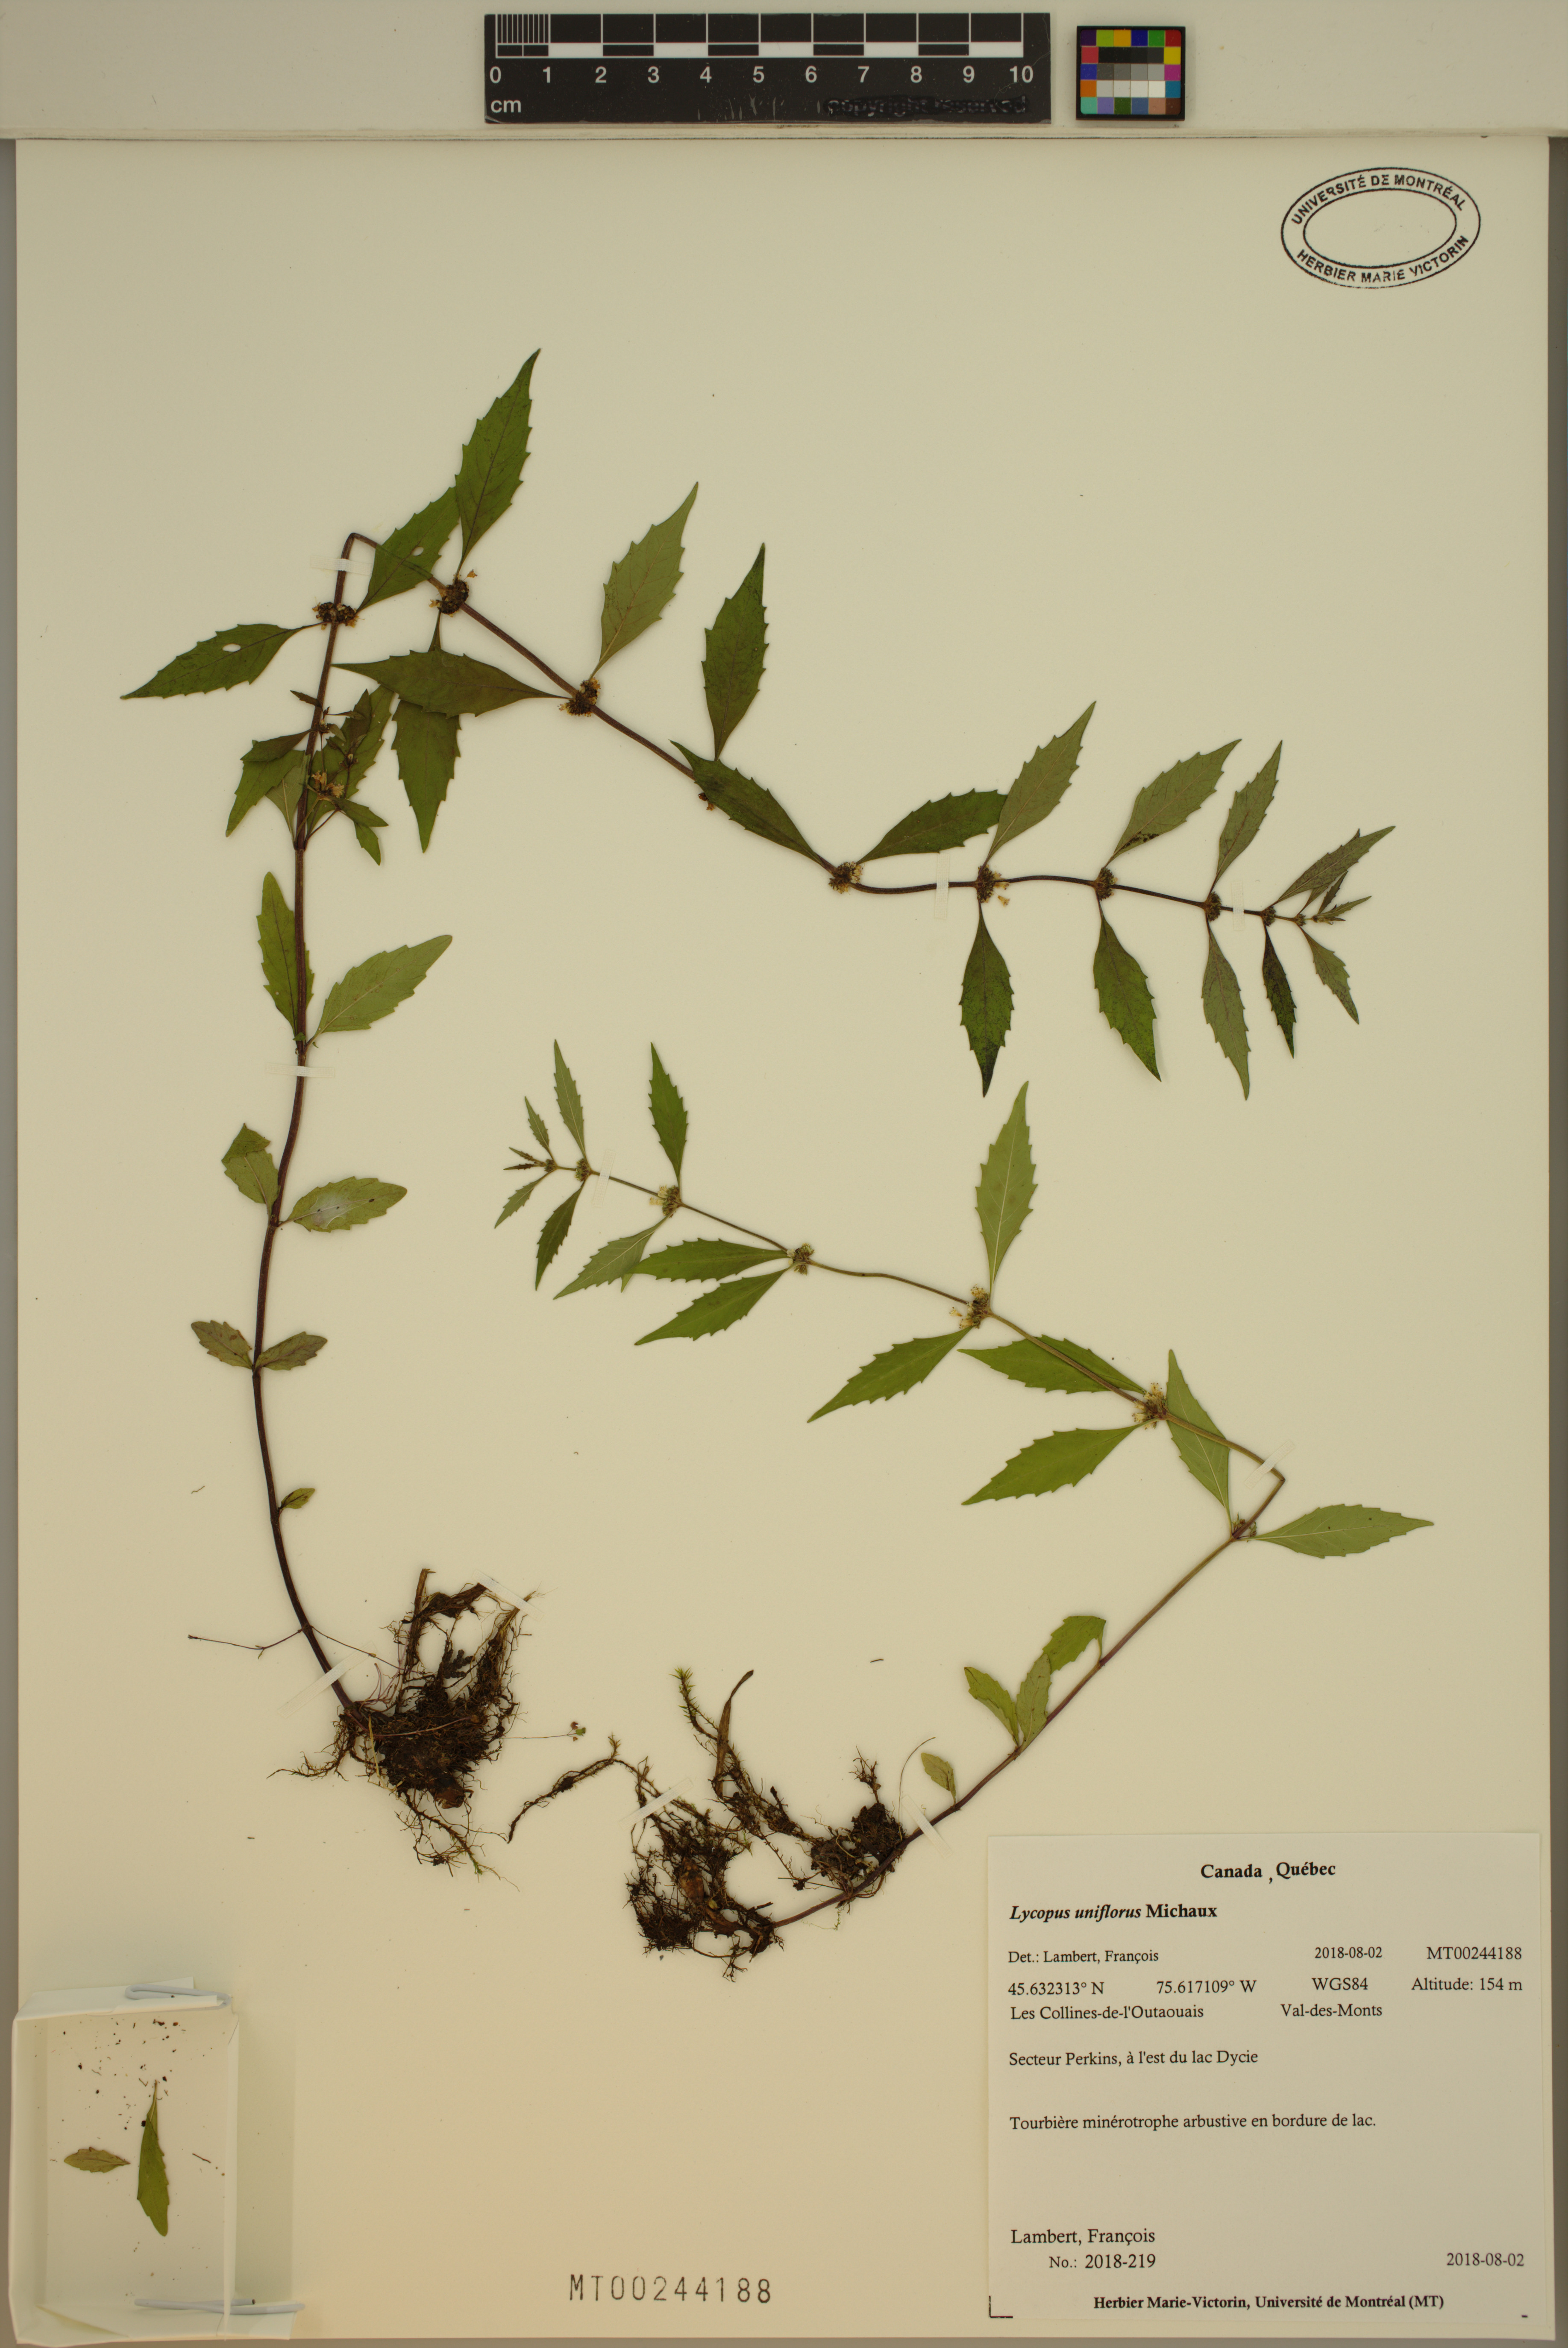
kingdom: Plantae
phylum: Tracheophyta
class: Magnoliopsida
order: Lamiales
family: Lamiaceae
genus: Lycopus
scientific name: Lycopus uniflorus
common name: Northern bugleweed
